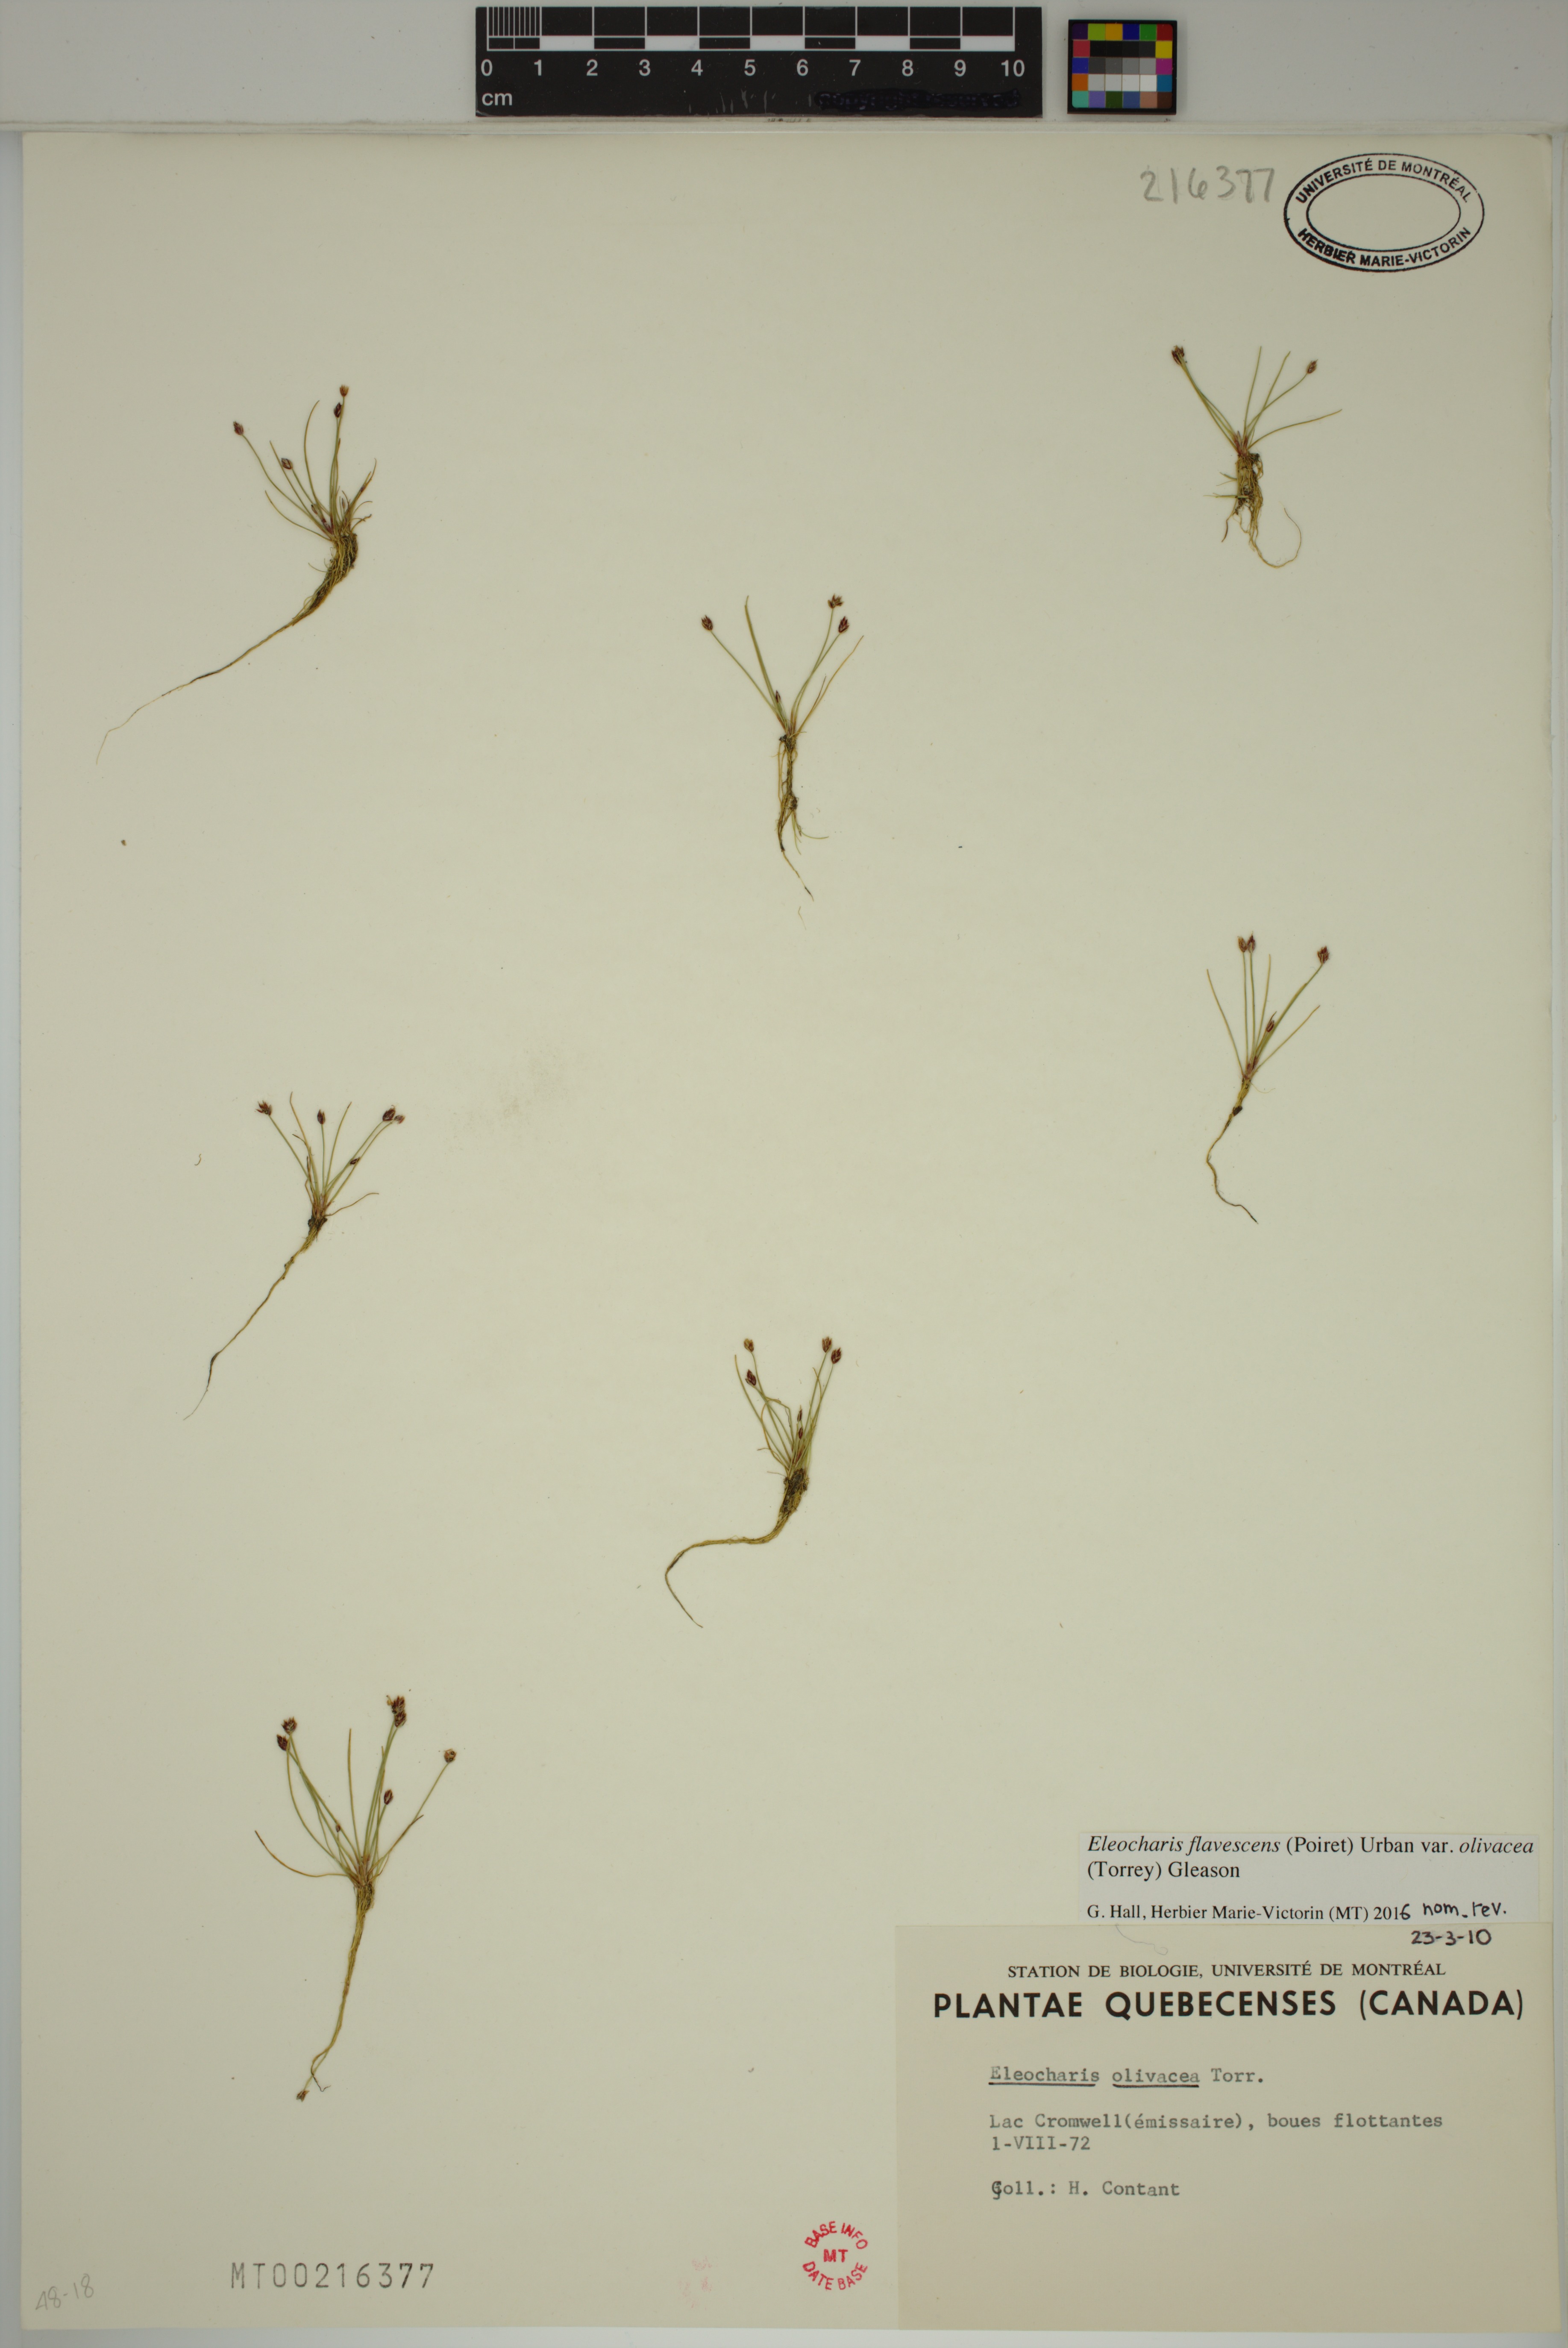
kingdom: Plantae
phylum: Tracheophyta
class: Liliopsida
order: Poales
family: Cyperaceae
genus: Eleocharis
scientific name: Eleocharis flavescens
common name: Yellow spikerush
